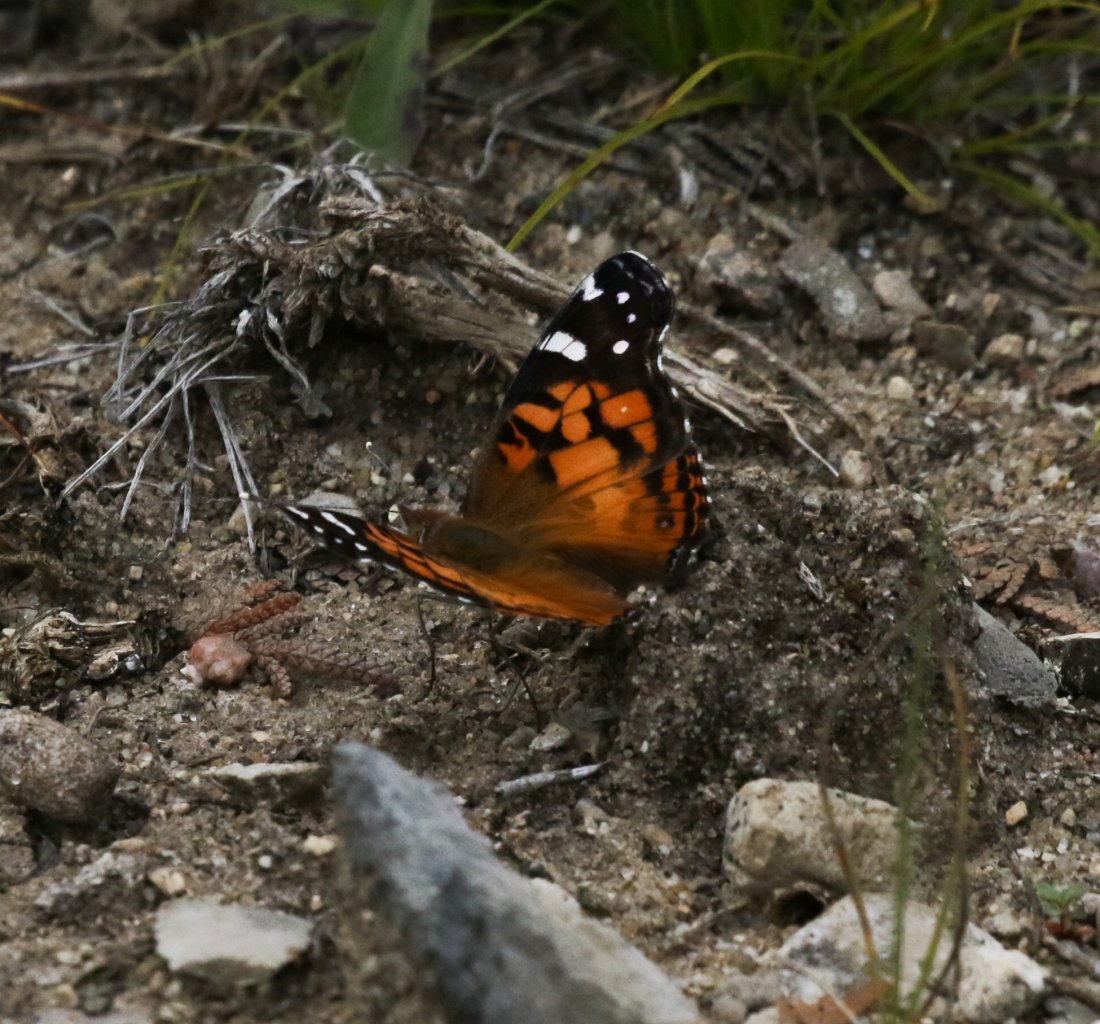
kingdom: Animalia
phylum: Arthropoda
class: Insecta
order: Lepidoptera
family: Nymphalidae
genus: Vanessa
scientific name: Vanessa virginiensis
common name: American Lady
